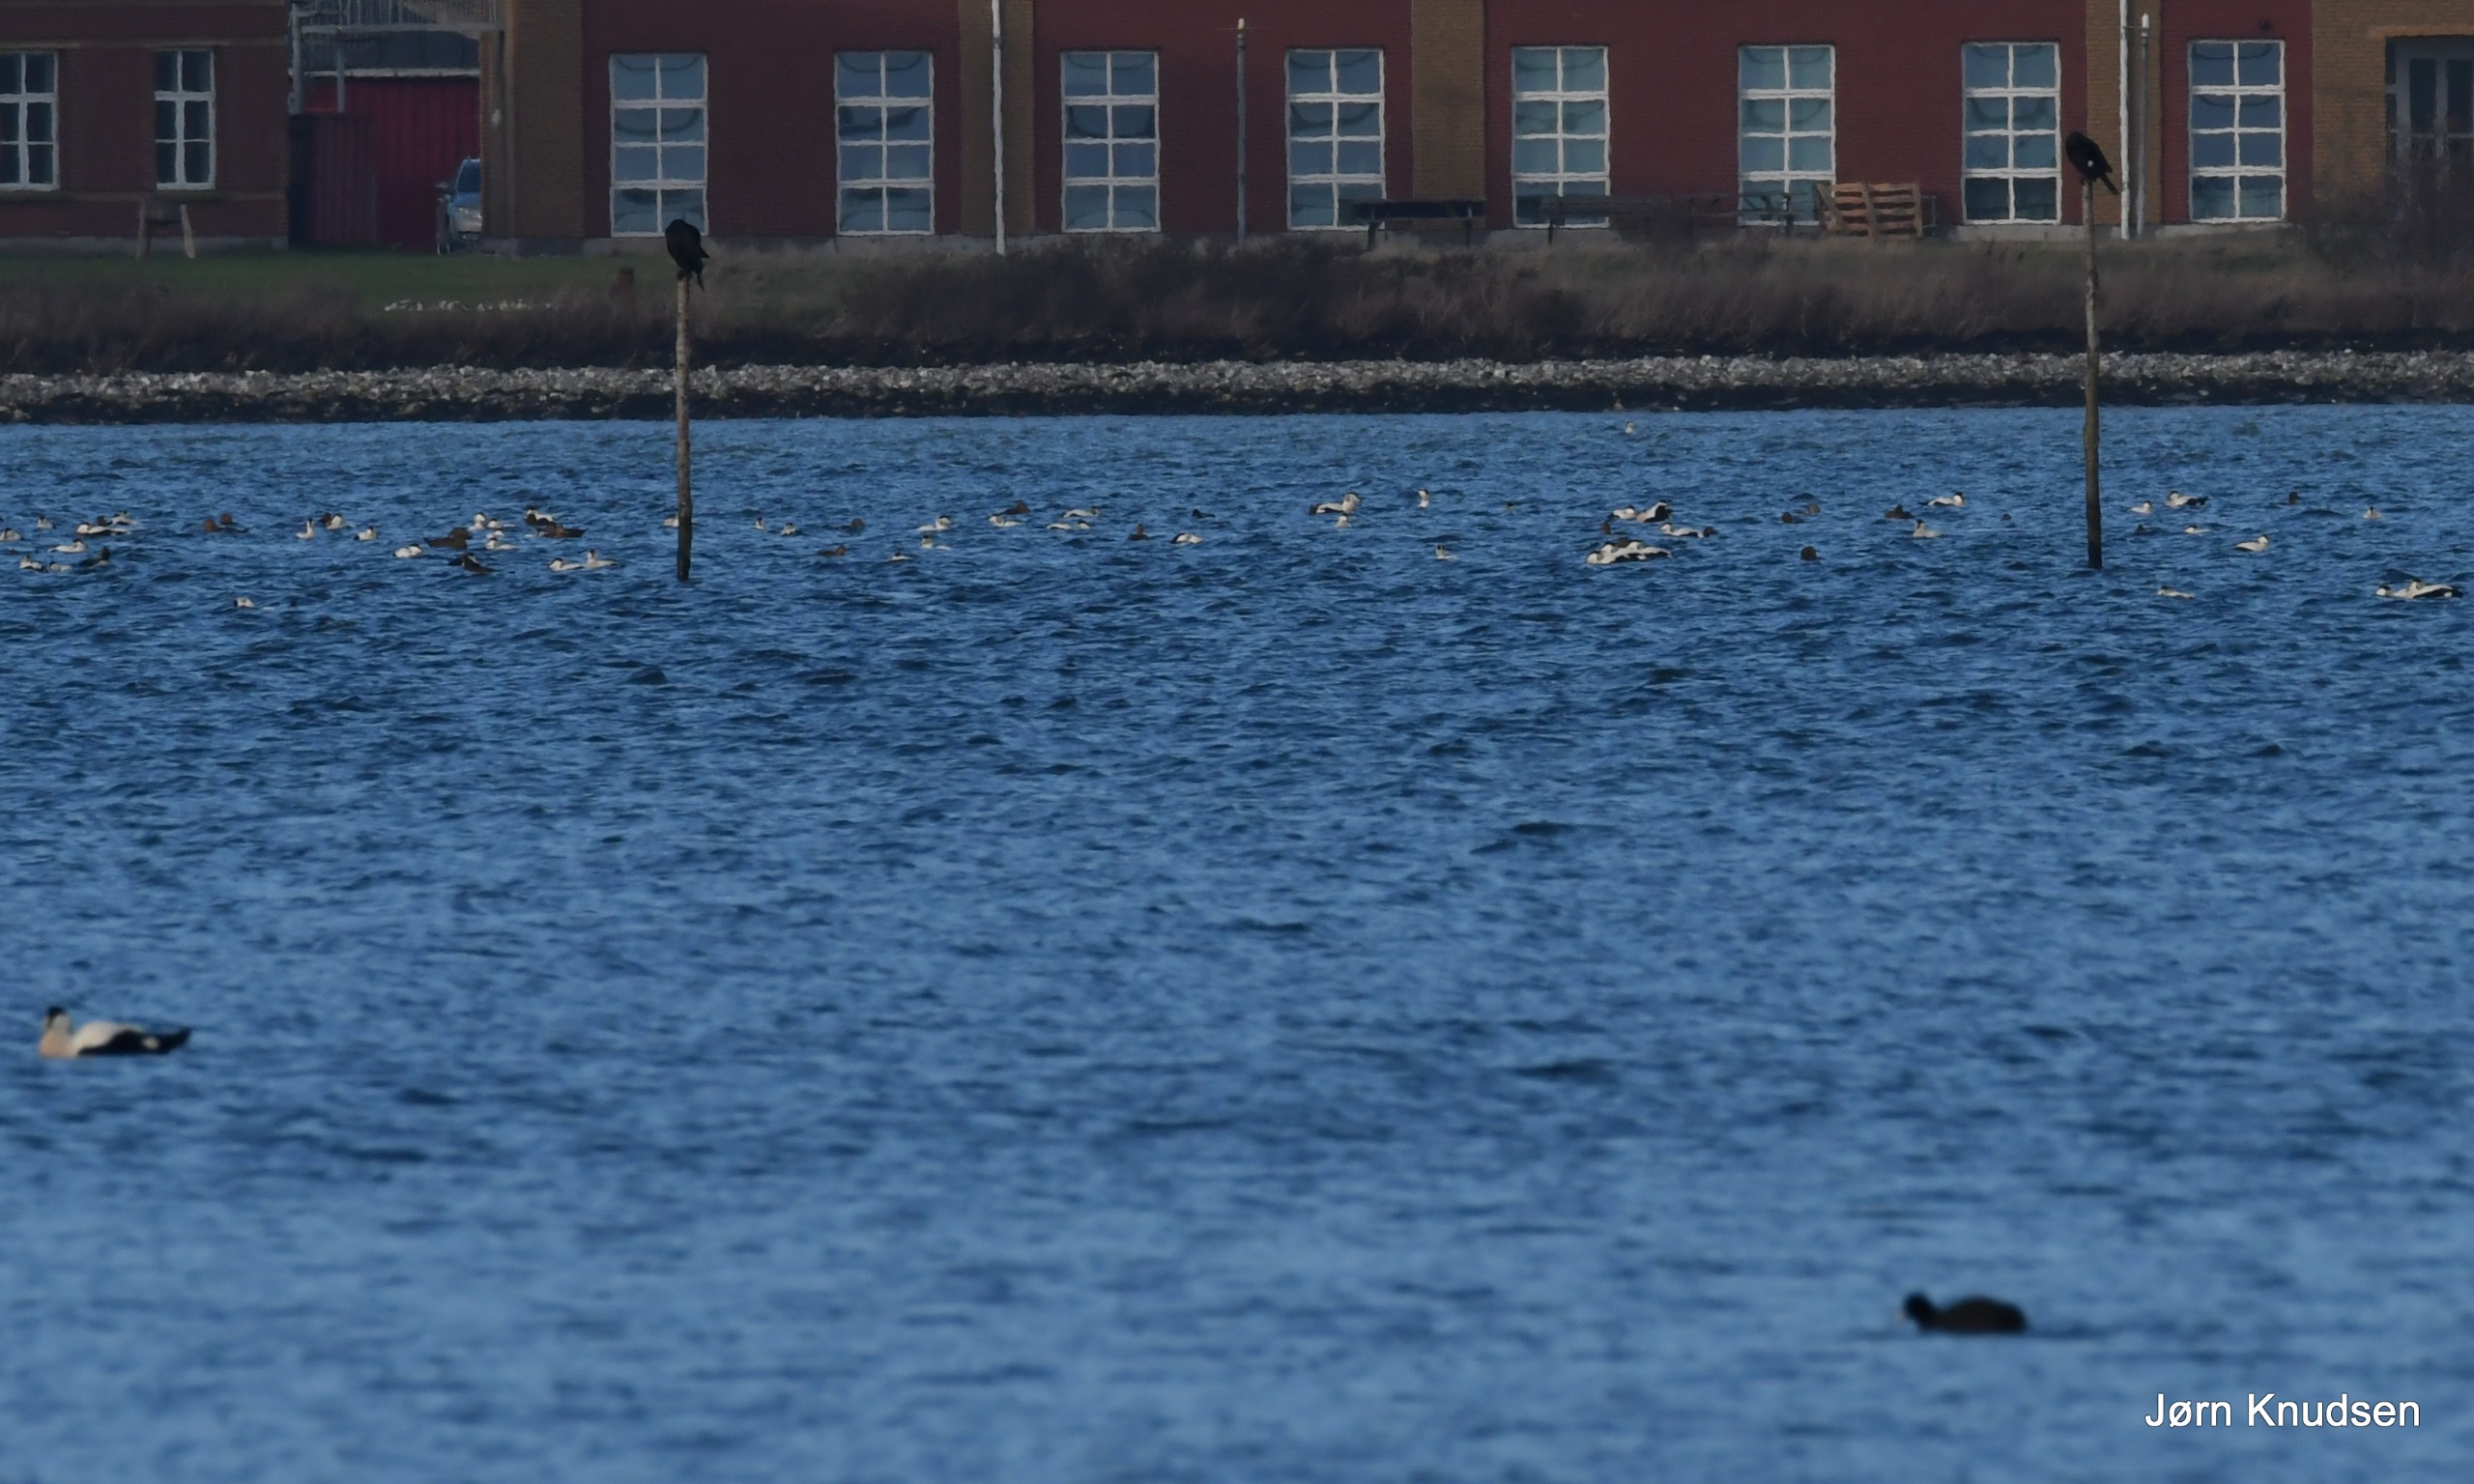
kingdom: Animalia
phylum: Chordata
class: Aves
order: Anseriformes
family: Anatidae
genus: Somateria
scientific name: Somateria mollissima
